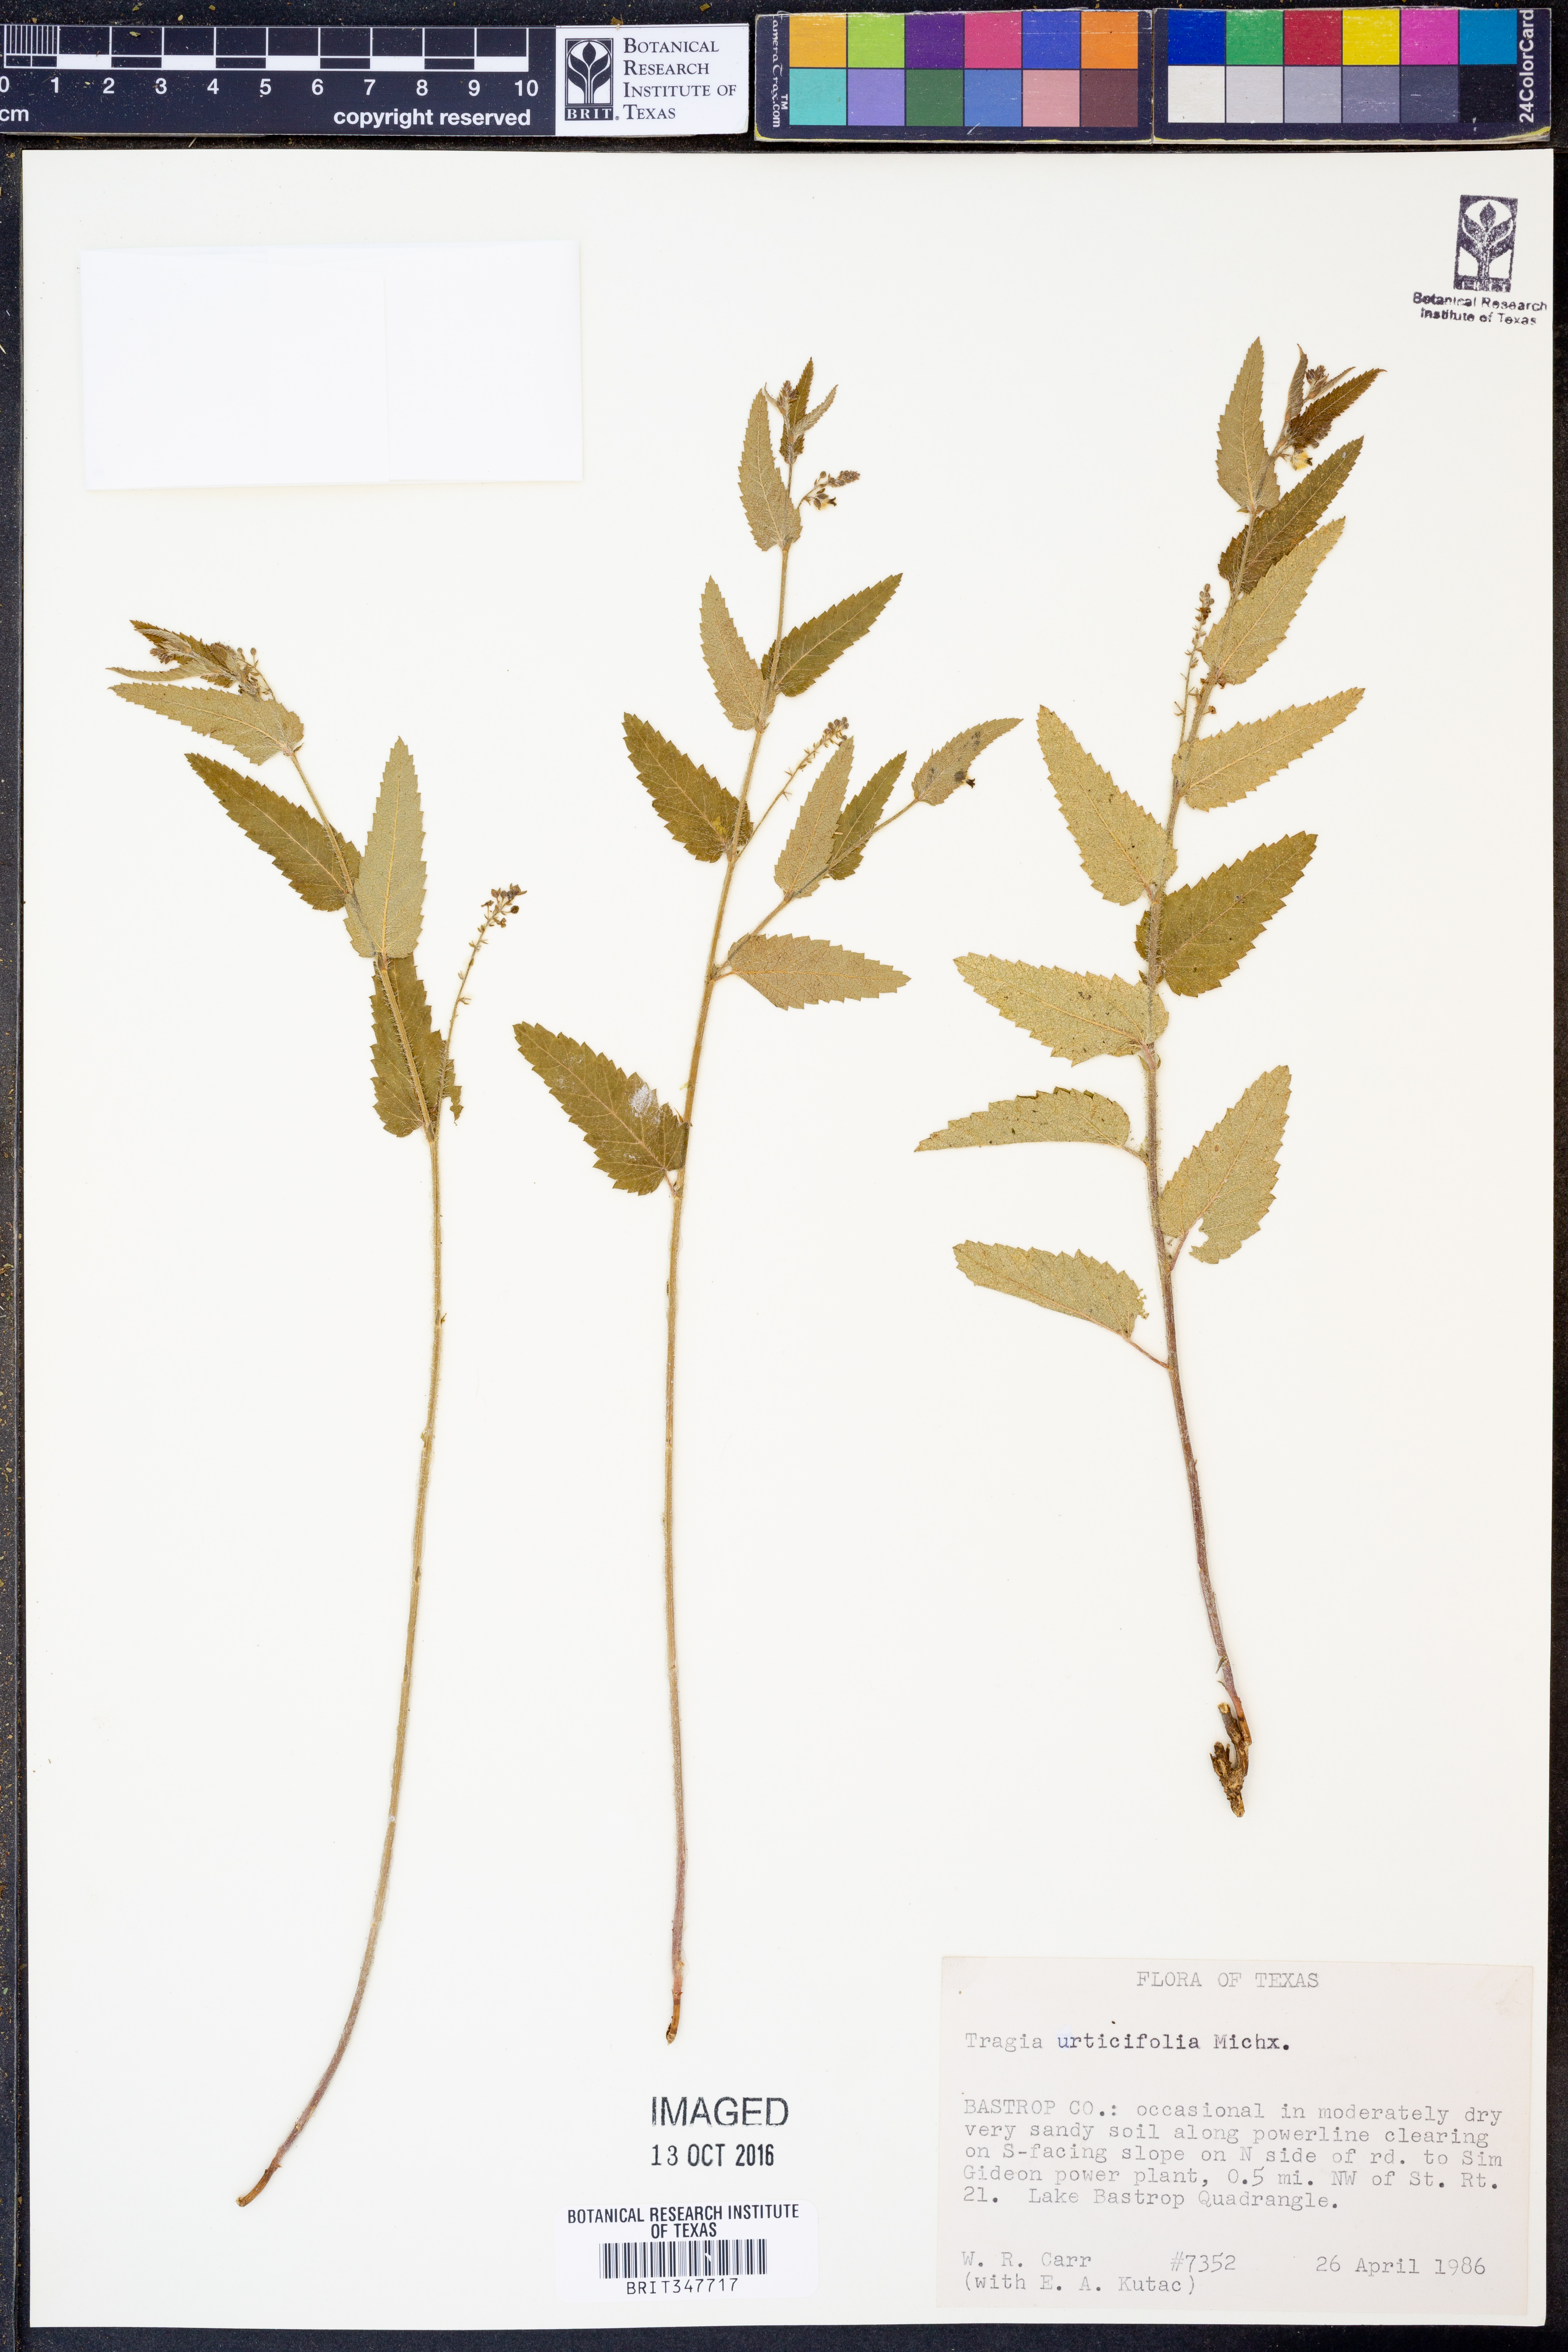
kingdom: Plantae
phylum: Tracheophyta
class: Magnoliopsida
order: Malpighiales
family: Euphorbiaceae
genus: Tragia
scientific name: Tragia urticifolia
